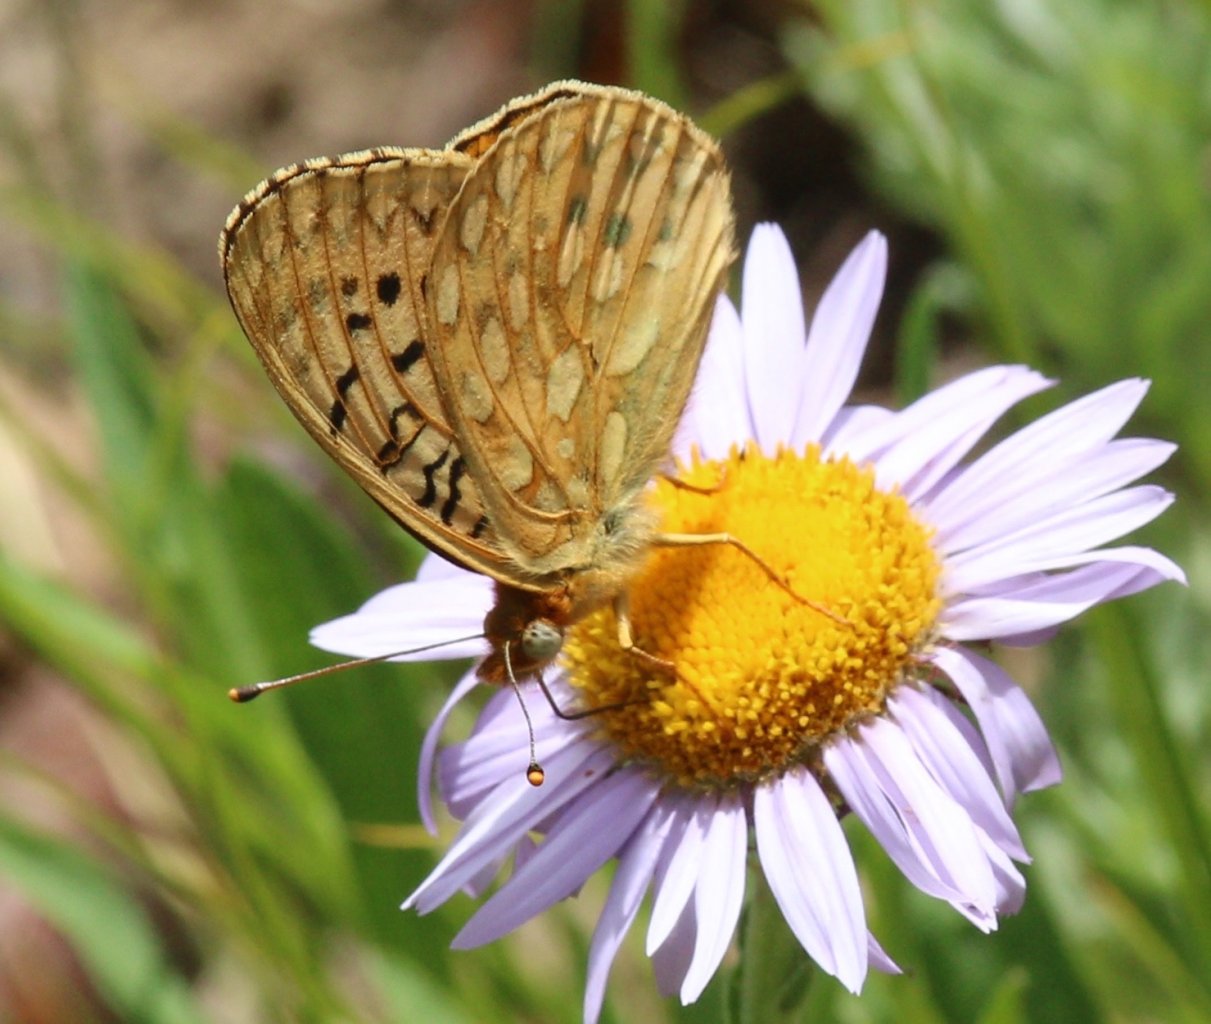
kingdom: Animalia
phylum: Arthropoda
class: Insecta
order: Lepidoptera
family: Nymphalidae
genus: Speyeria
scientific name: Speyeria mormonia
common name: Mormon Fritillary
